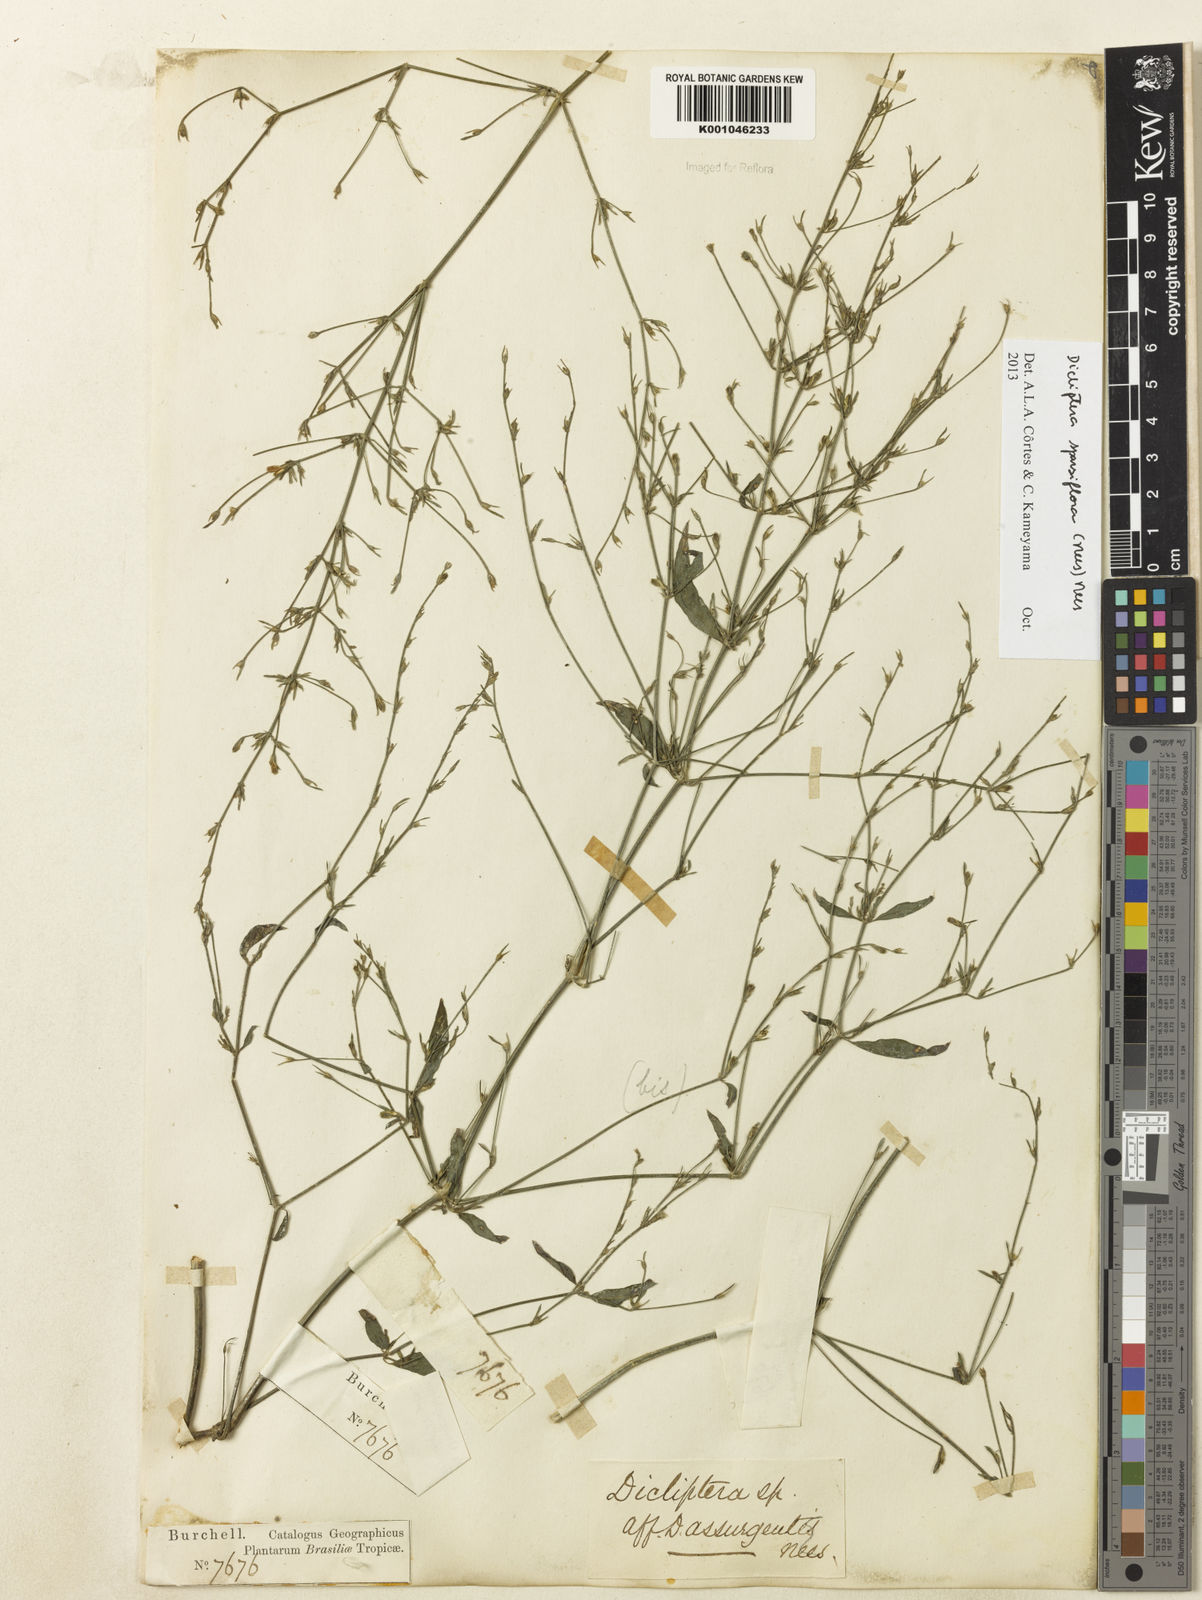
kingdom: Plantae
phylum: Tracheophyta
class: Magnoliopsida
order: Lamiales
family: Acanthaceae
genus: Dicliptera
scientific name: Dicliptera sparsiflora
